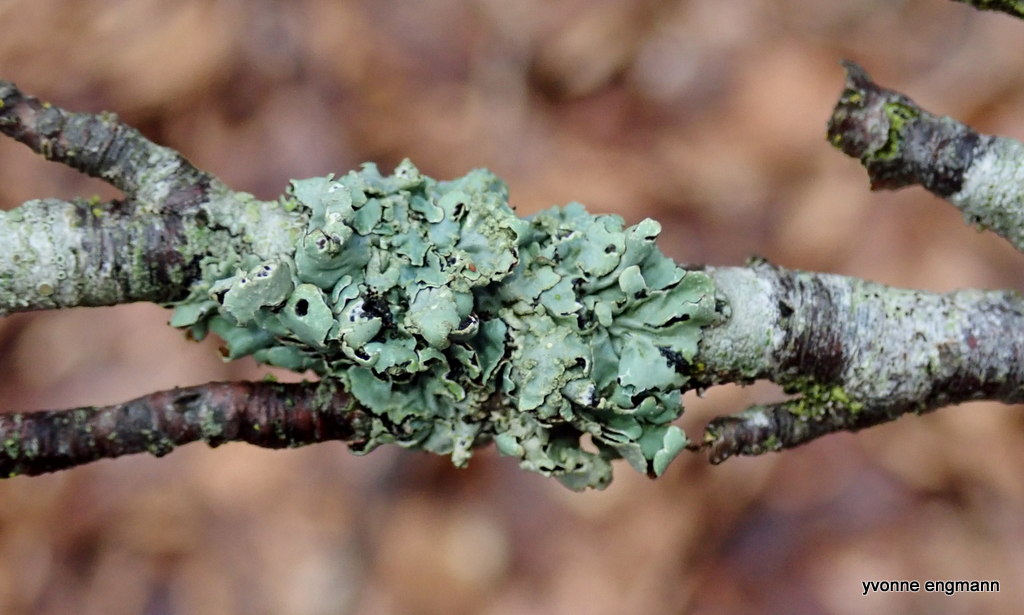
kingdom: Fungi
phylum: Ascomycota
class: Lecanoromycetes
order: Lecanorales
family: Parmeliaceae
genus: Parmelia
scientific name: Parmelia sulcata
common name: rynket skållav
